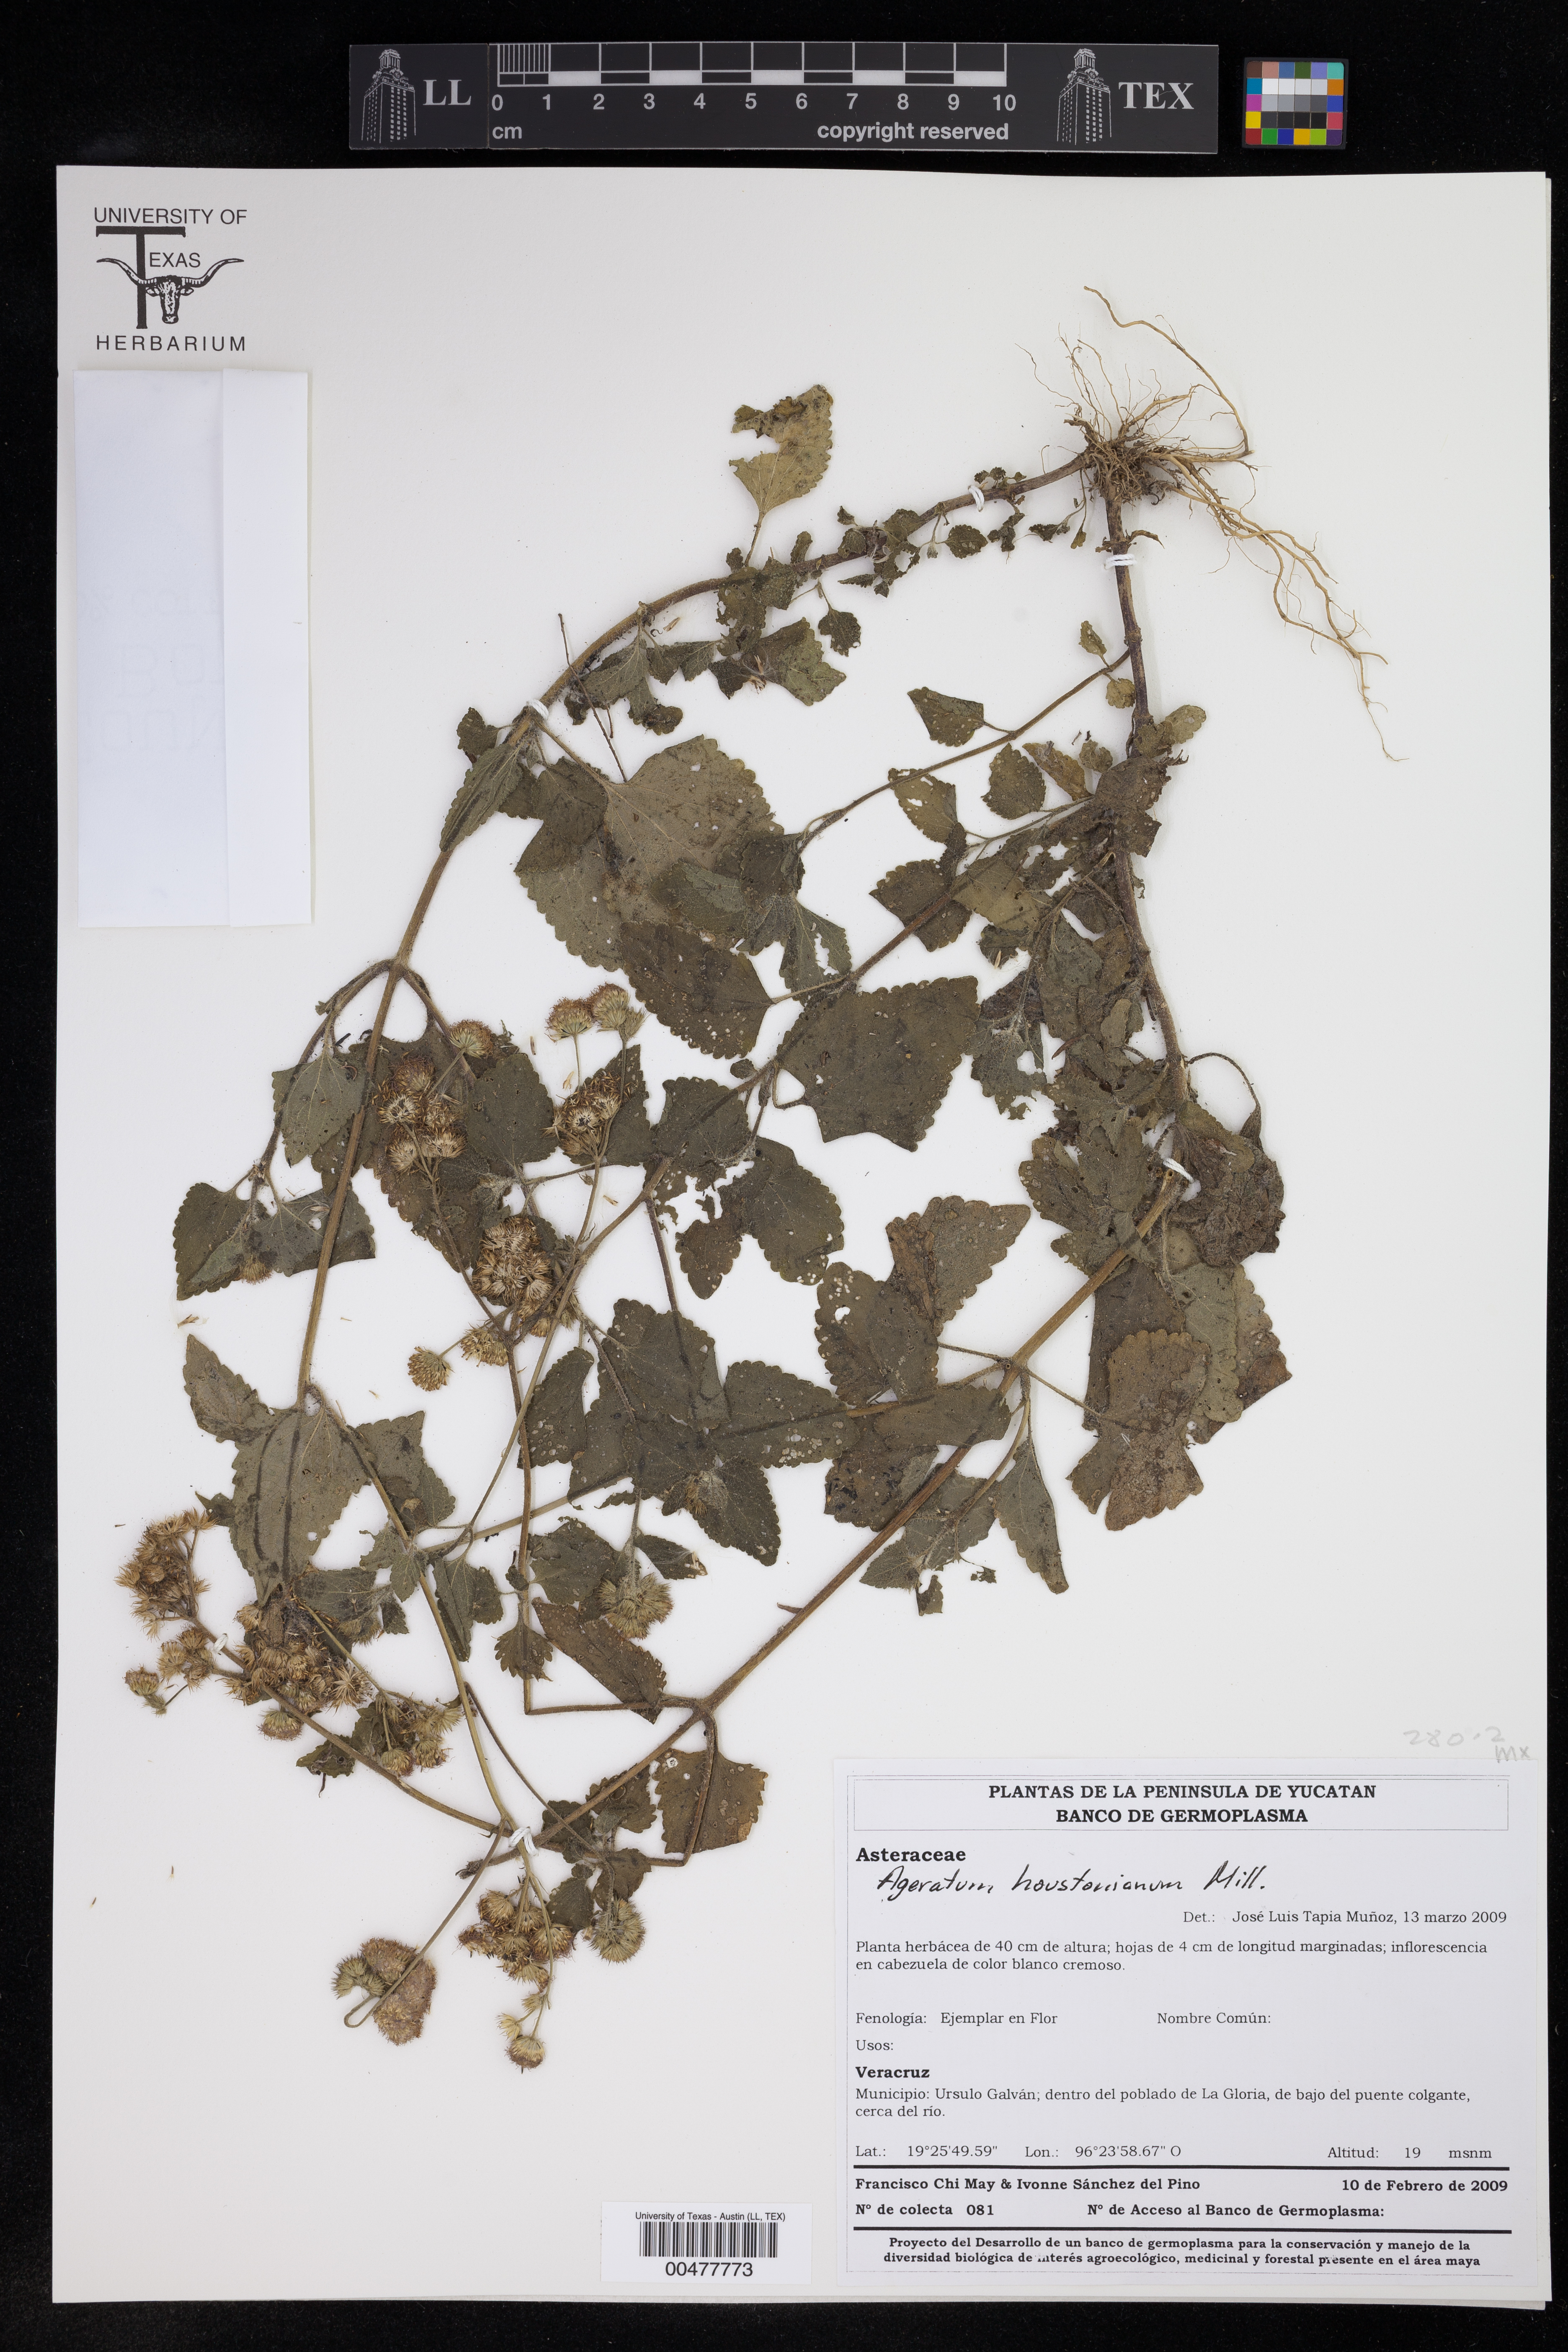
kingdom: Plantae
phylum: Tracheophyta
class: Magnoliopsida
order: Asterales
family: Asteraceae
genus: Ageratum
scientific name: Ageratum houstonianum
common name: Bluemink
